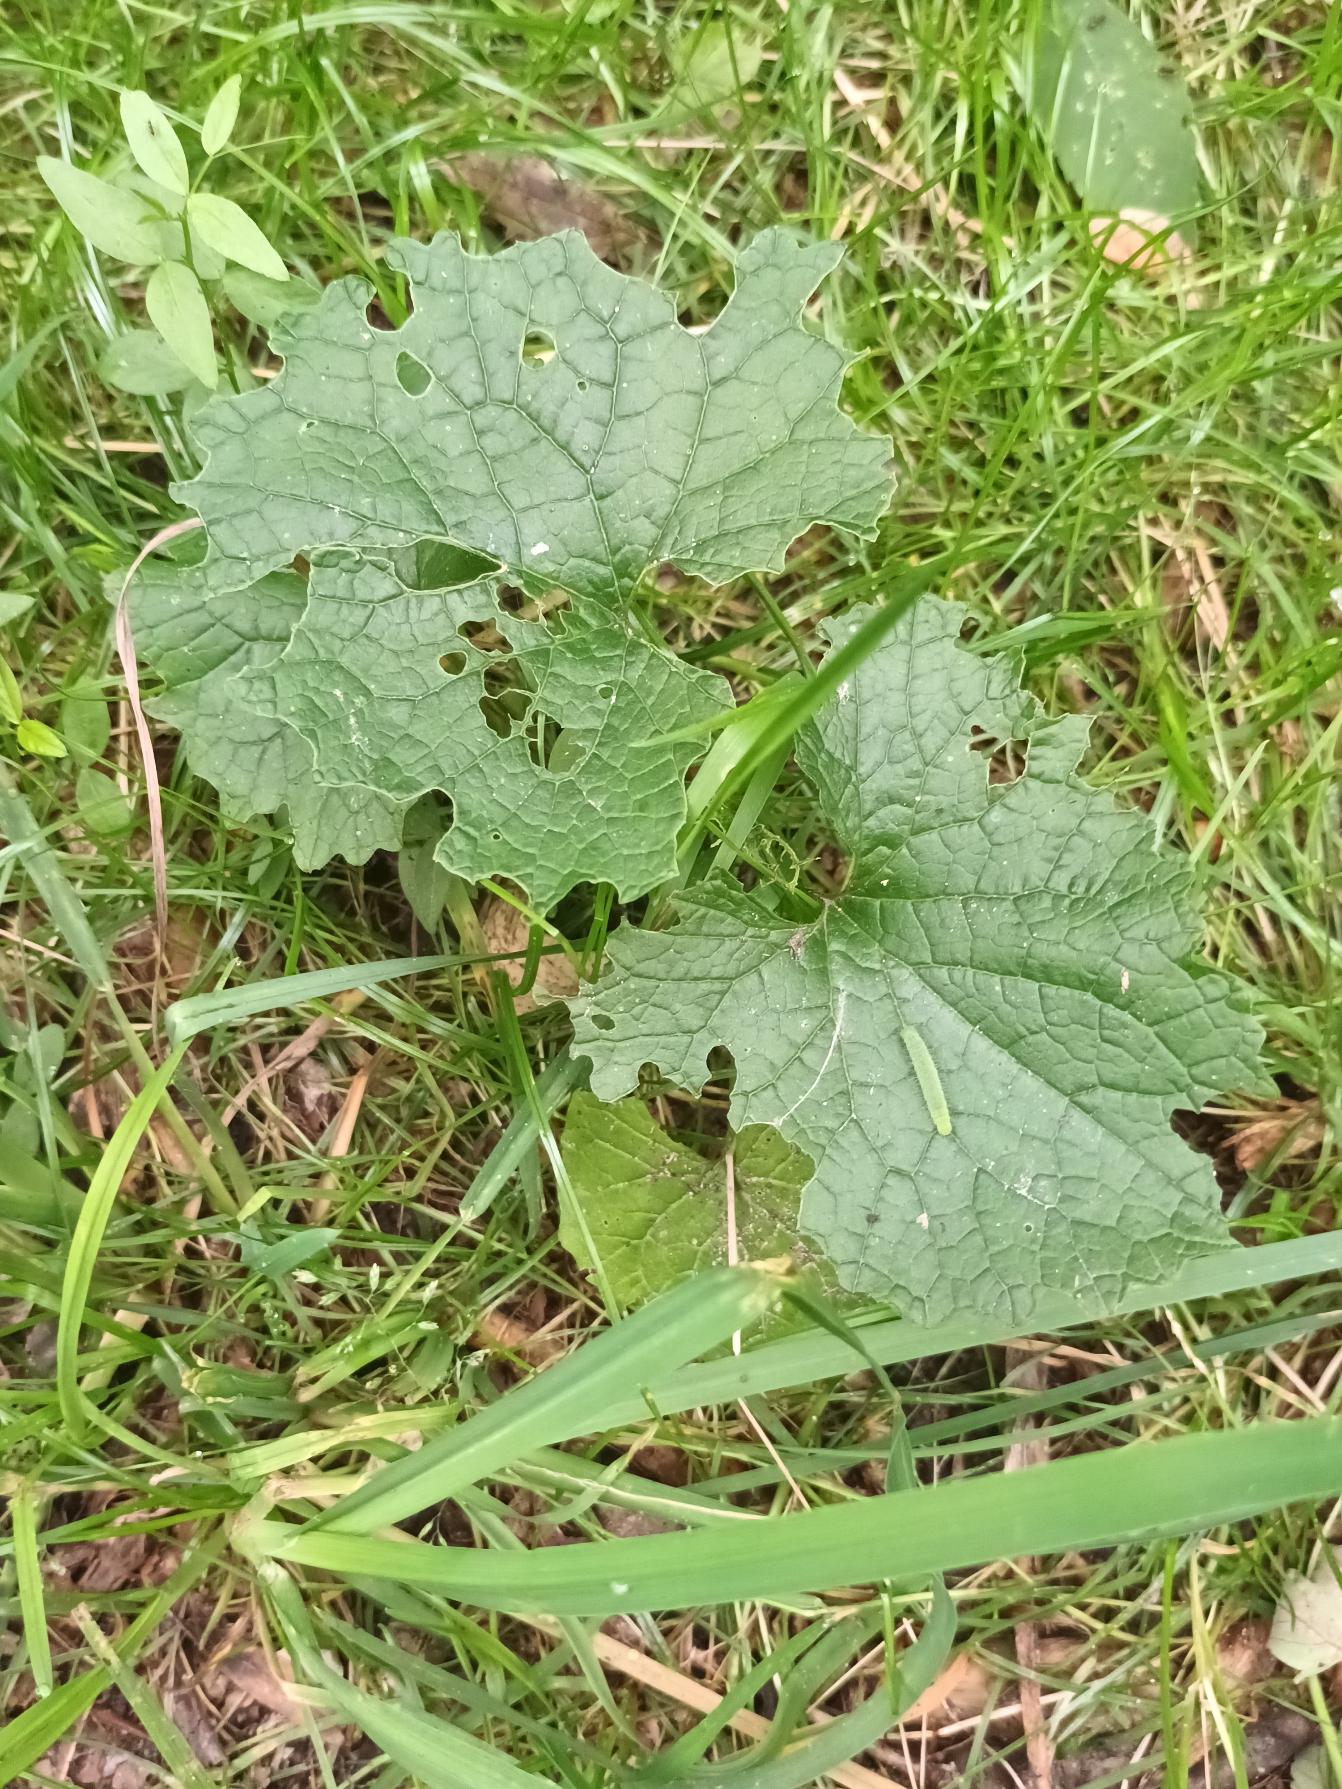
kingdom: Plantae
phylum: Tracheophyta
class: Magnoliopsida
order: Brassicales
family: Brassicaceae
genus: Alliaria
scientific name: Alliaria petiolata
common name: Løgkarse
